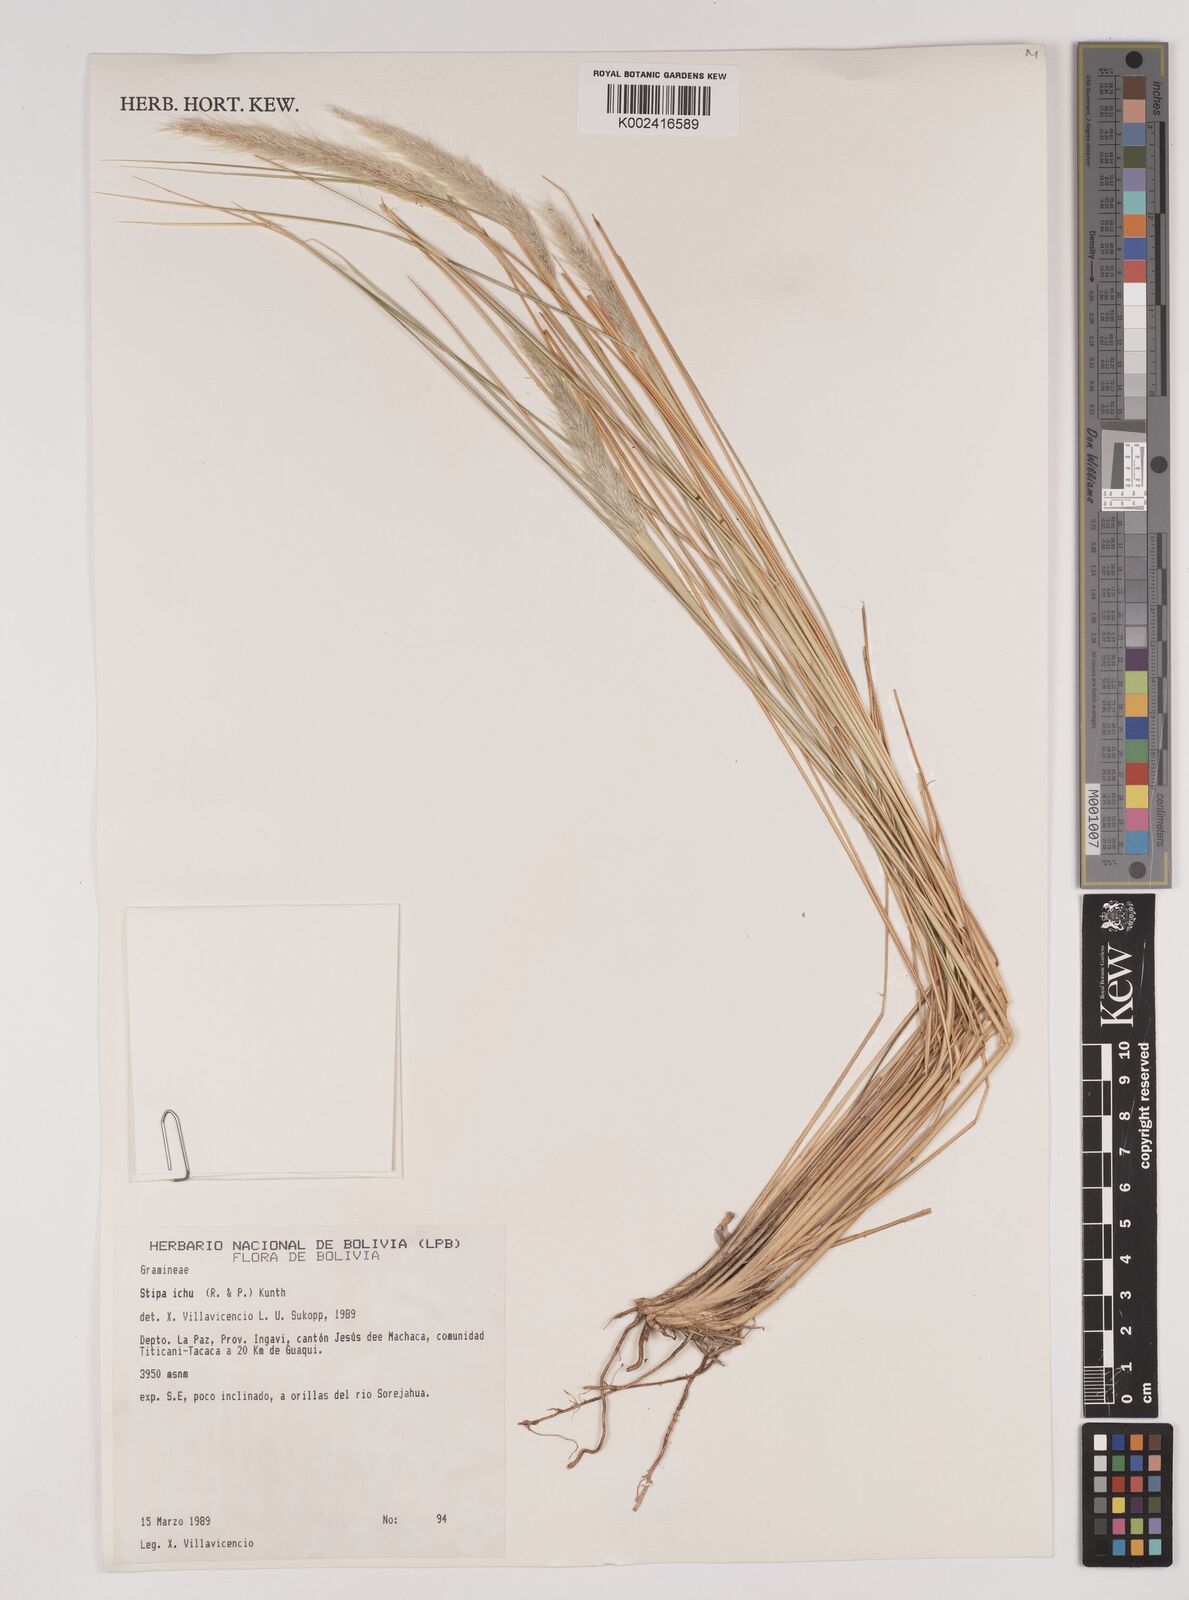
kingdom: Plantae
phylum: Tracheophyta
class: Liliopsida
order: Poales
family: Poaceae
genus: Jarava
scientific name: Jarava leptostachya
